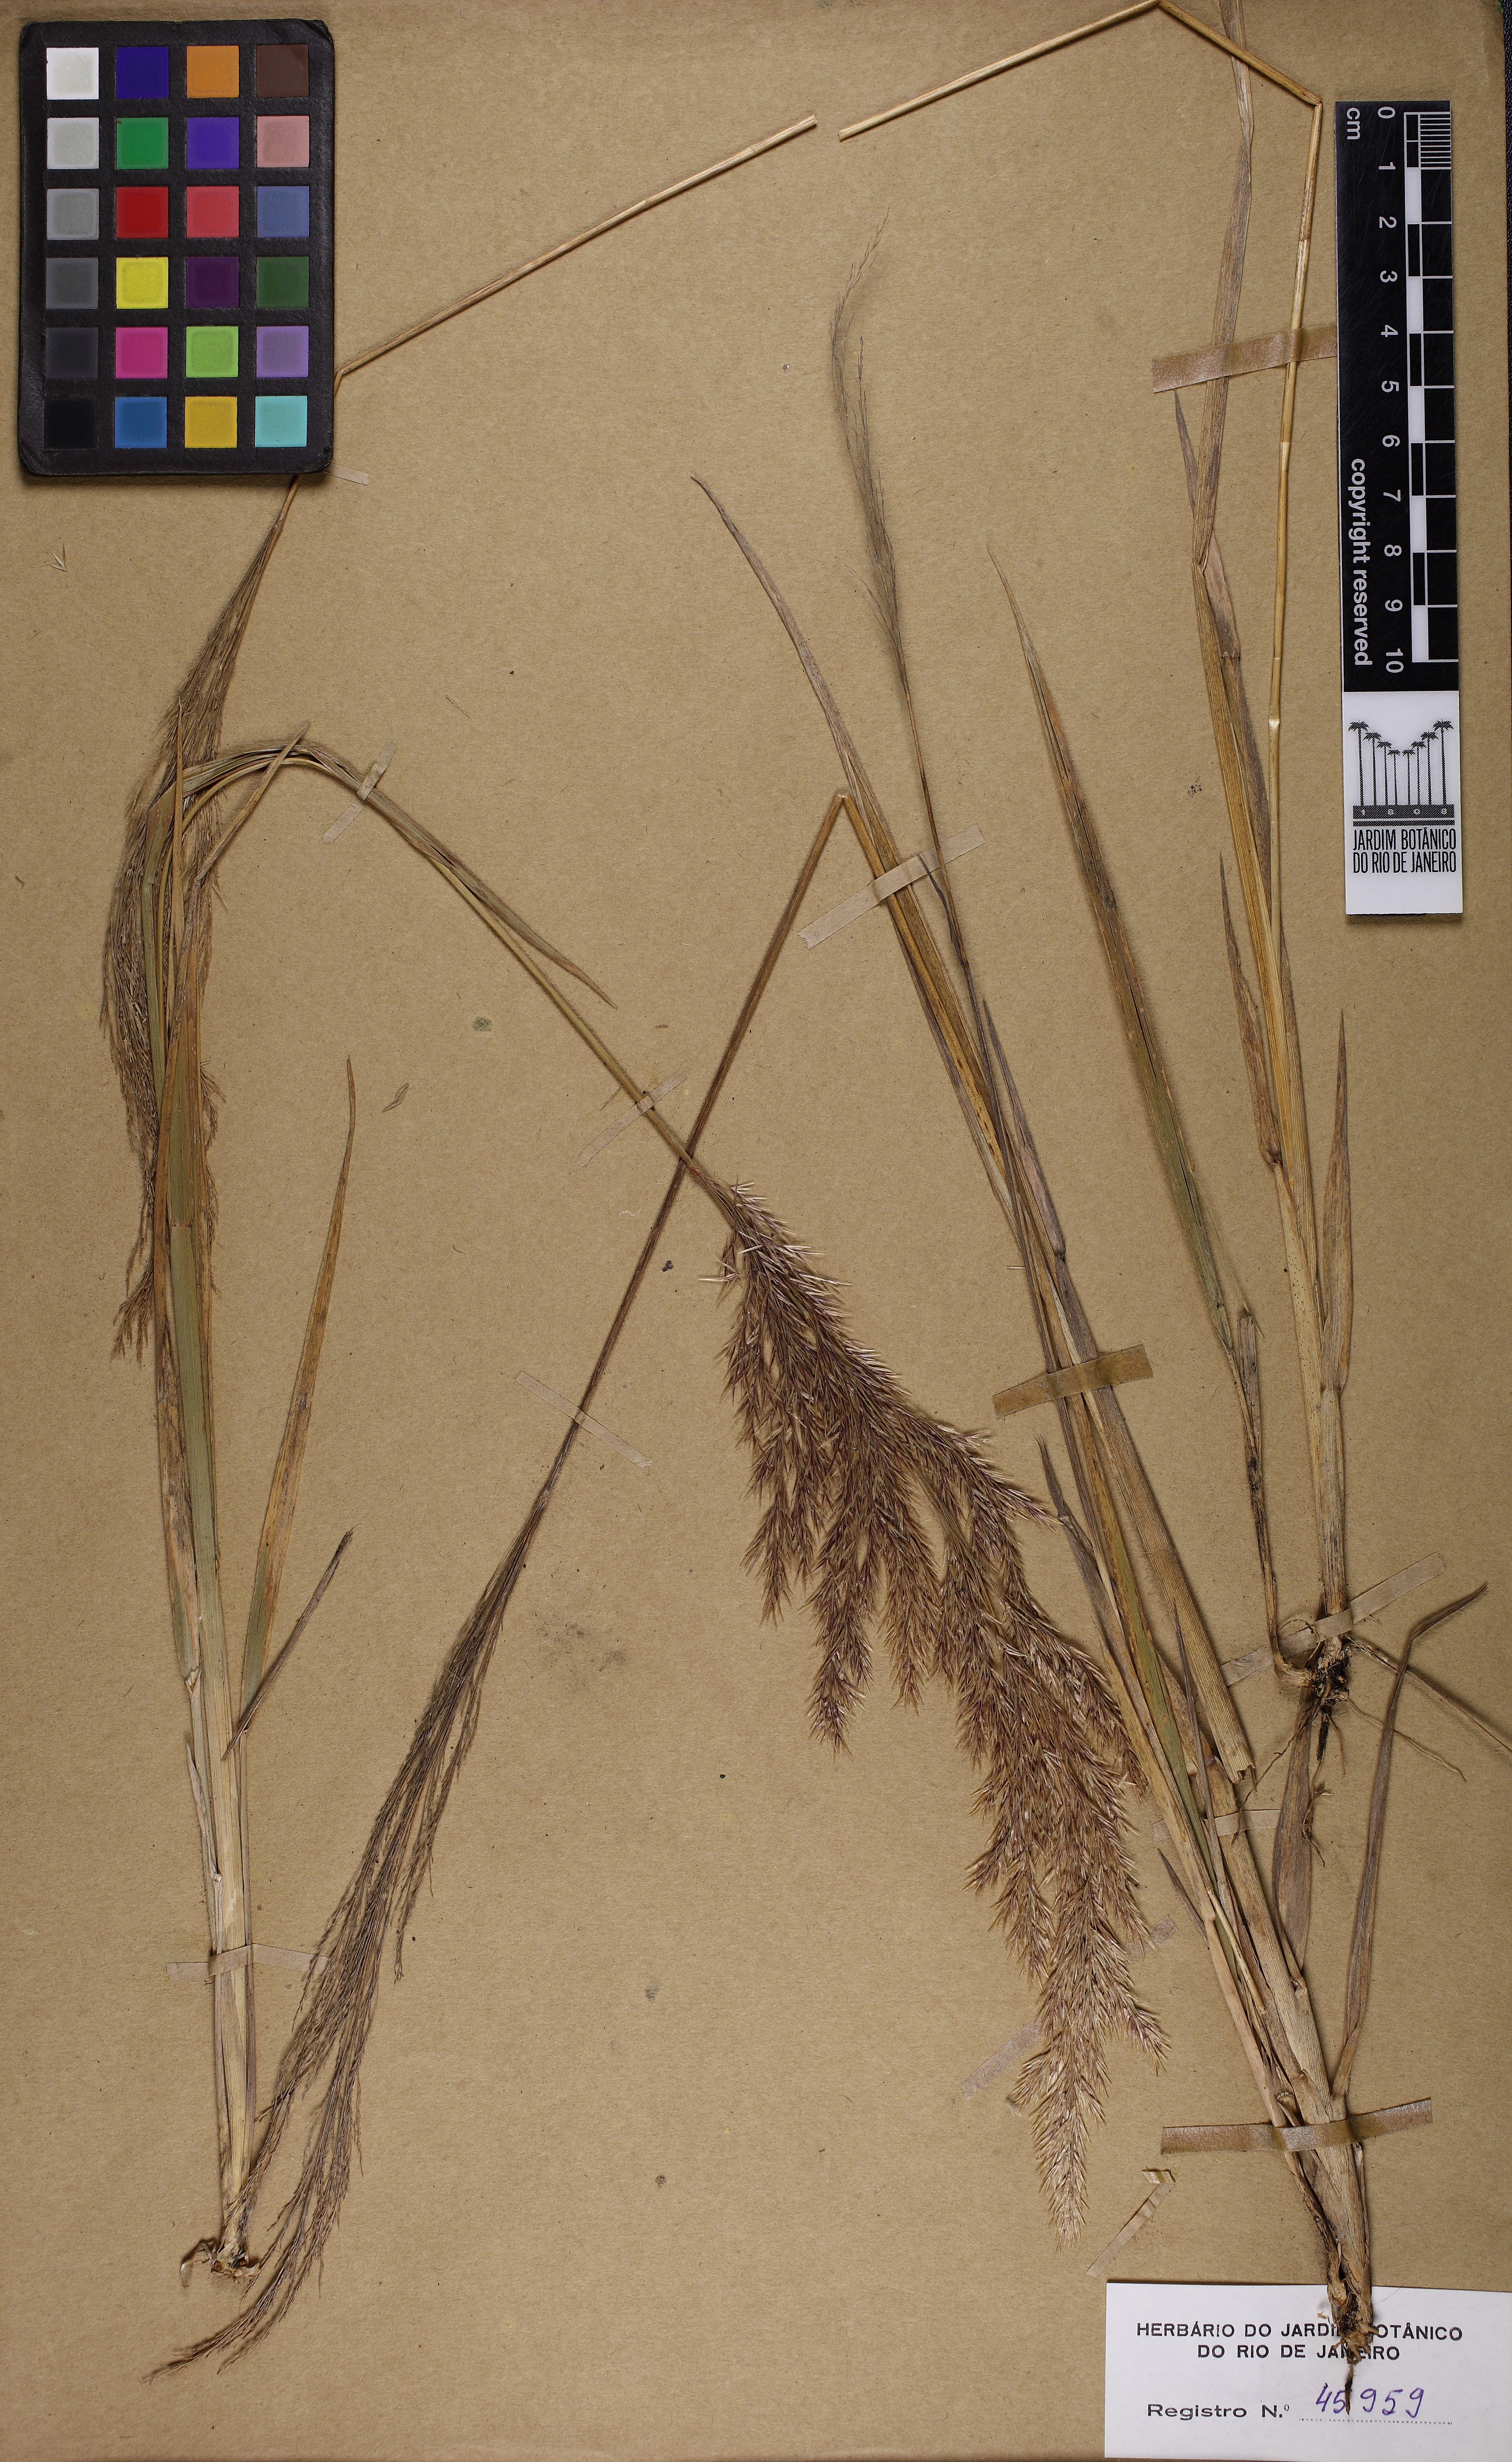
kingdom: Plantae
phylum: Tracheophyta
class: Liliopsida
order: Poales
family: Poaceae
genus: Calamagrostis
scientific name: Calamagrostis
